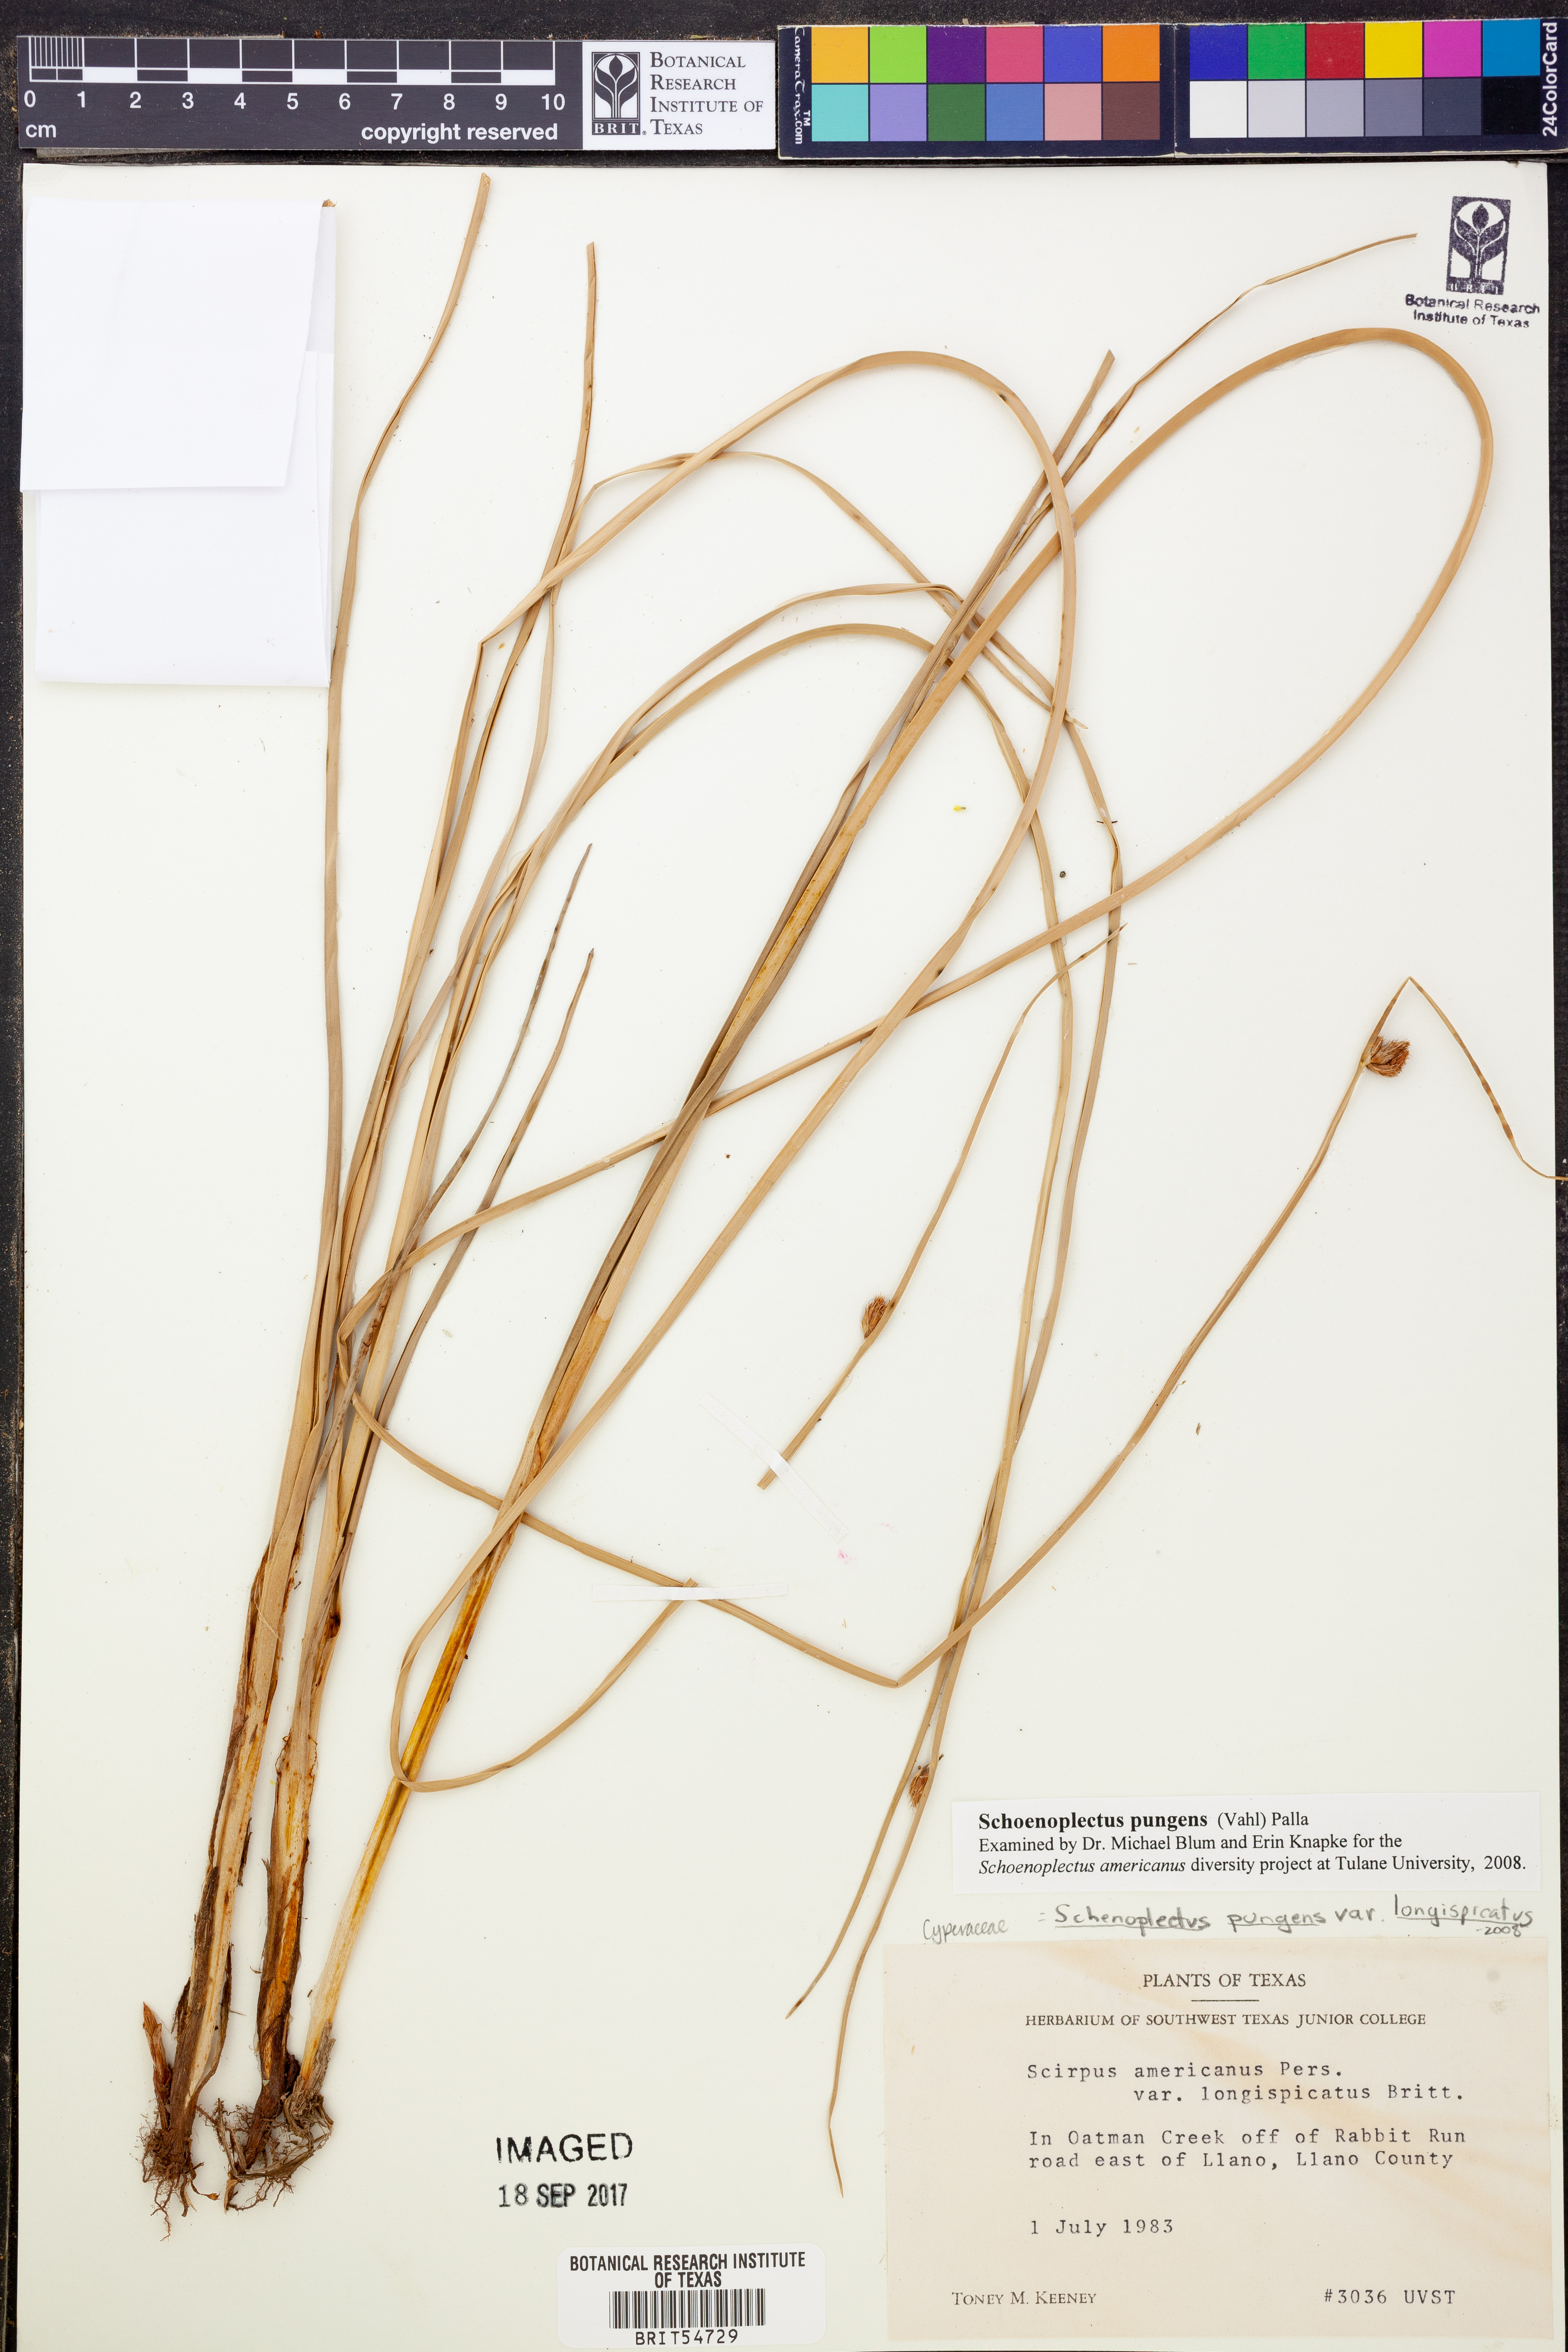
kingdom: Plantae
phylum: Tracheophyta
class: Liliopsida
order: Poales
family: Cyperaceae
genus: Schoenoplectus
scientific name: Schoenoplectus pungens
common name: Sharp club-rush
